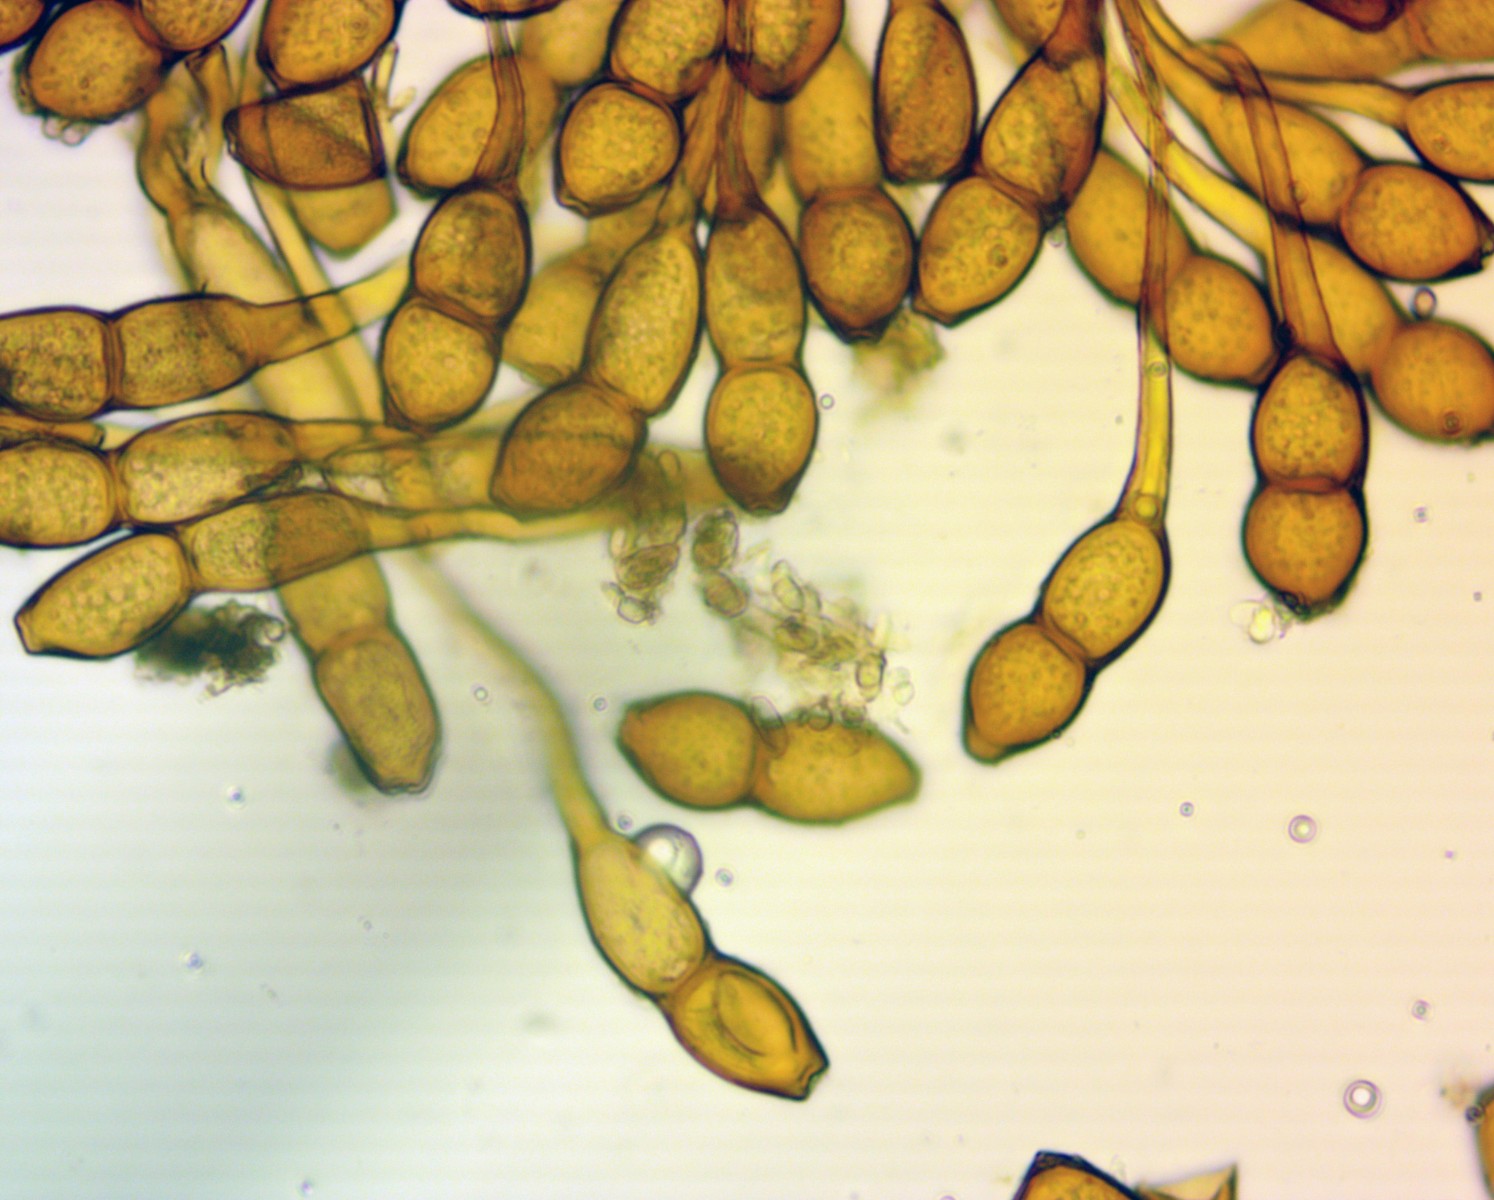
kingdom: Fungi
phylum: Basidiomycota
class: Pucciniomycetes
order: Pucciniales
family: Pucciniaceae
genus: Puccinia
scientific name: Puccinia phragmitis
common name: tagrør-tvecellerust
